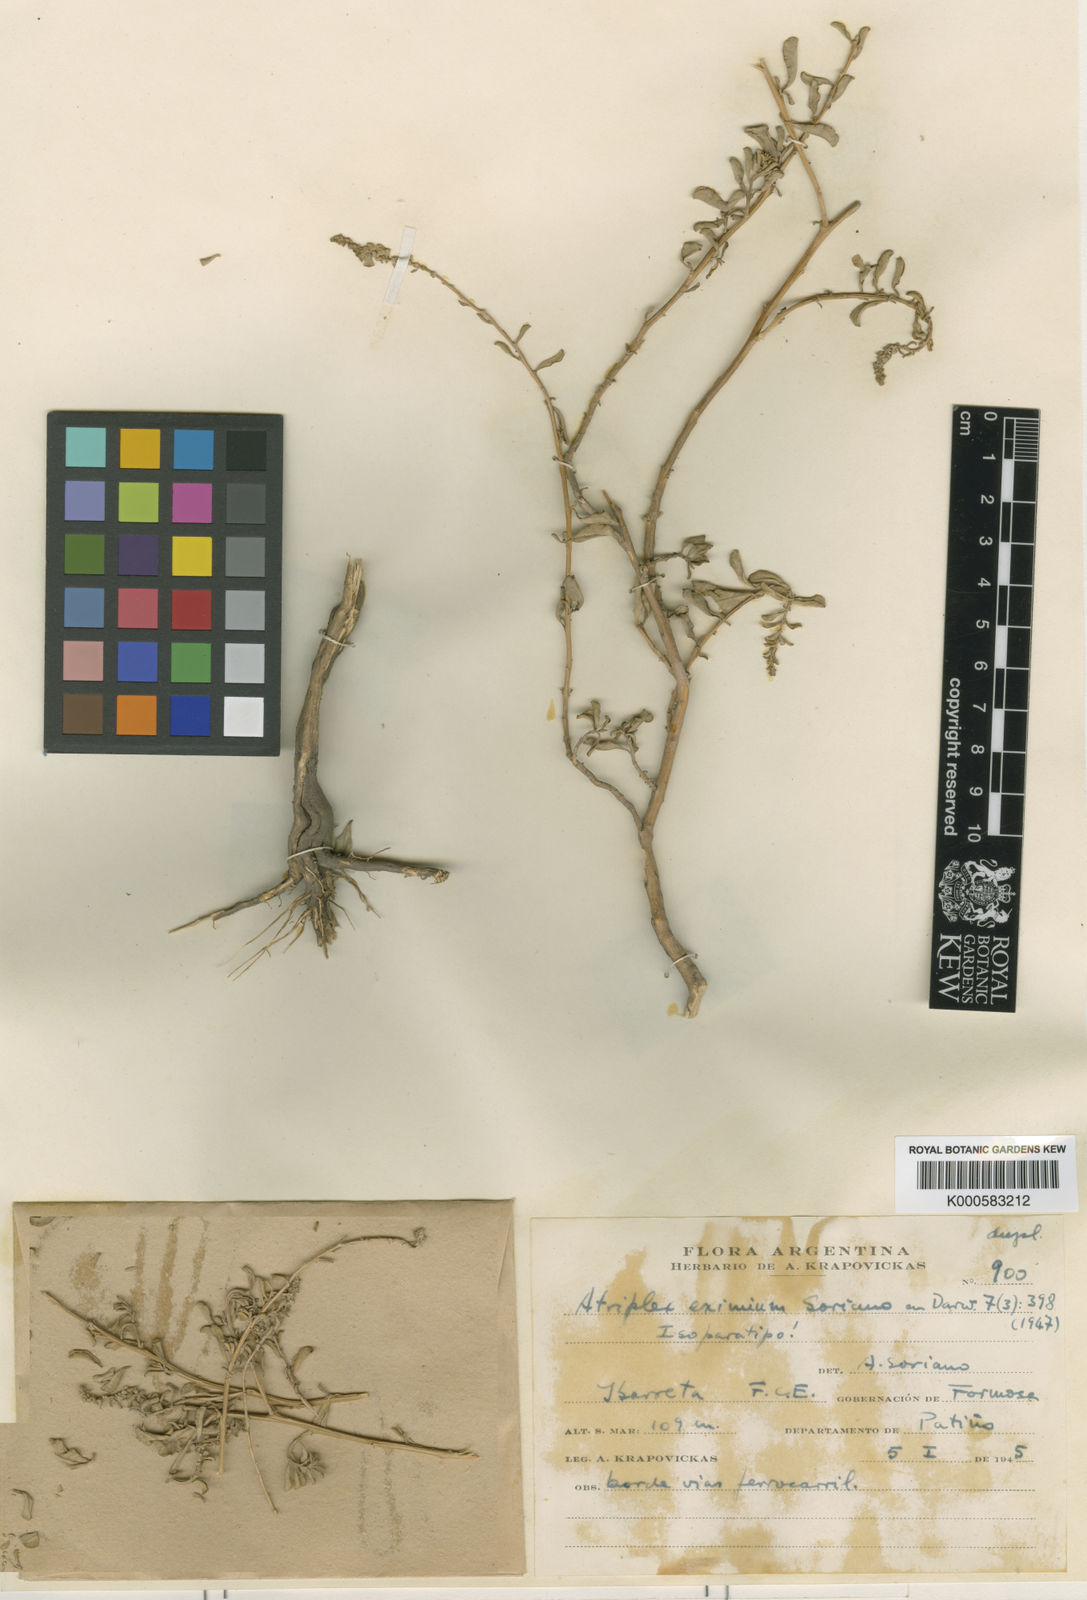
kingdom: Plantae
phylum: Tracheophyta
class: Magnoliopsida
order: Caryophyllales
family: Amaranthaceae
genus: Atriplex
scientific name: Atriplex eximia
